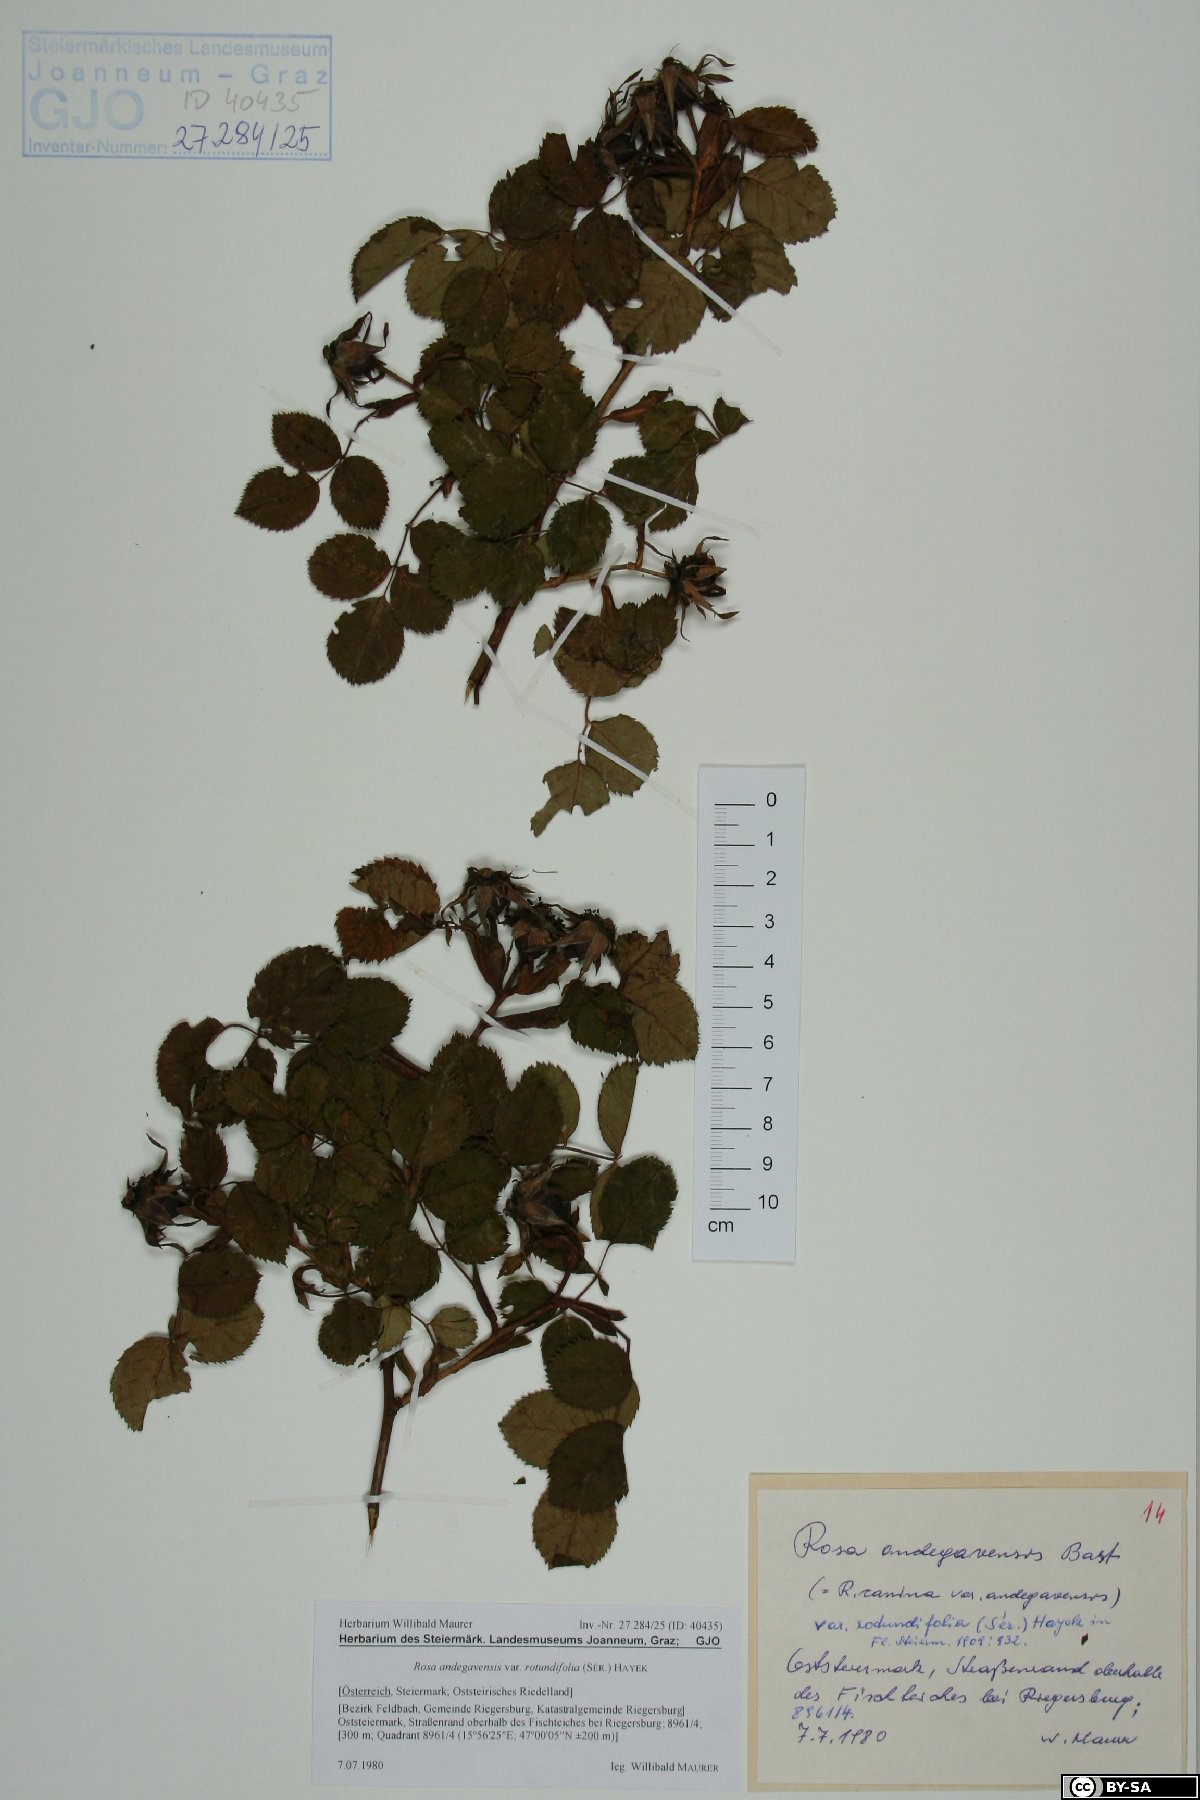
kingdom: Plantae
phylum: Tracheophyta
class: Magnoliopsida
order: Rosales
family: Rosaceae
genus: Rosa
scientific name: Rosa canina
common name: Dog rose
